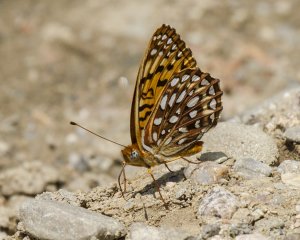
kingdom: Animalia
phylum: Arthropoda
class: Insecta
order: Lepidoptera
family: Nymphalidae
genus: Speyeria
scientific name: Speyeria atlantis
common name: Atlantis Fritillary
